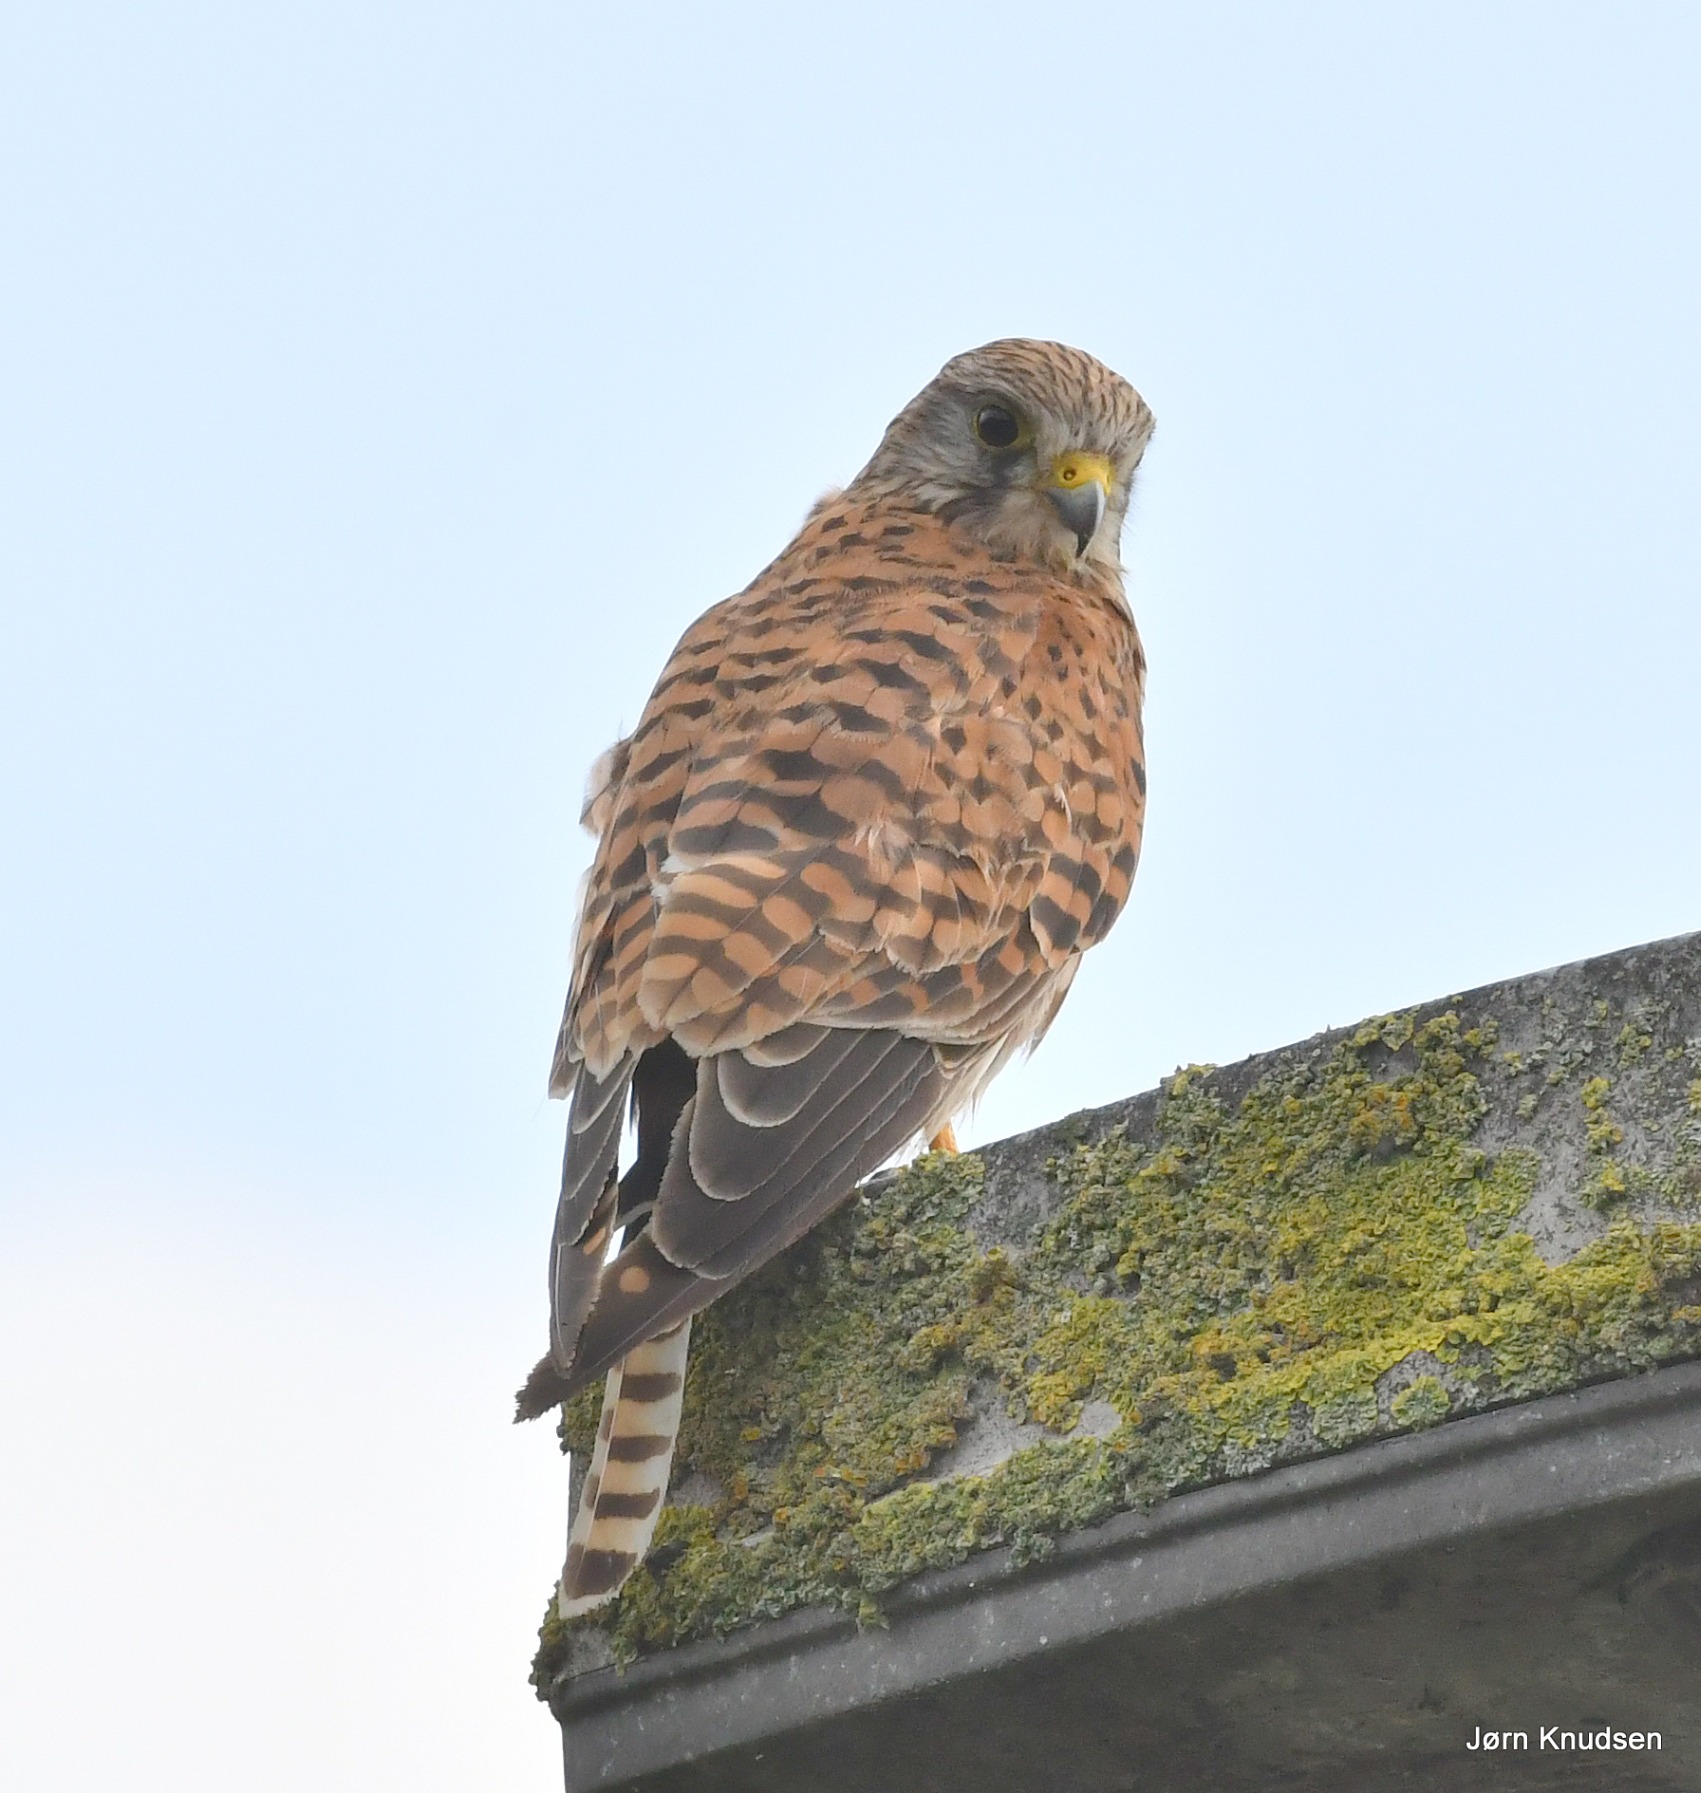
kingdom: Animalia
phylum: Chordata
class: Aves
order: Falconiformes
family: Falconidae
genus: Falco
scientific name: Falco tinnunculus
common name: Tårnfalk
